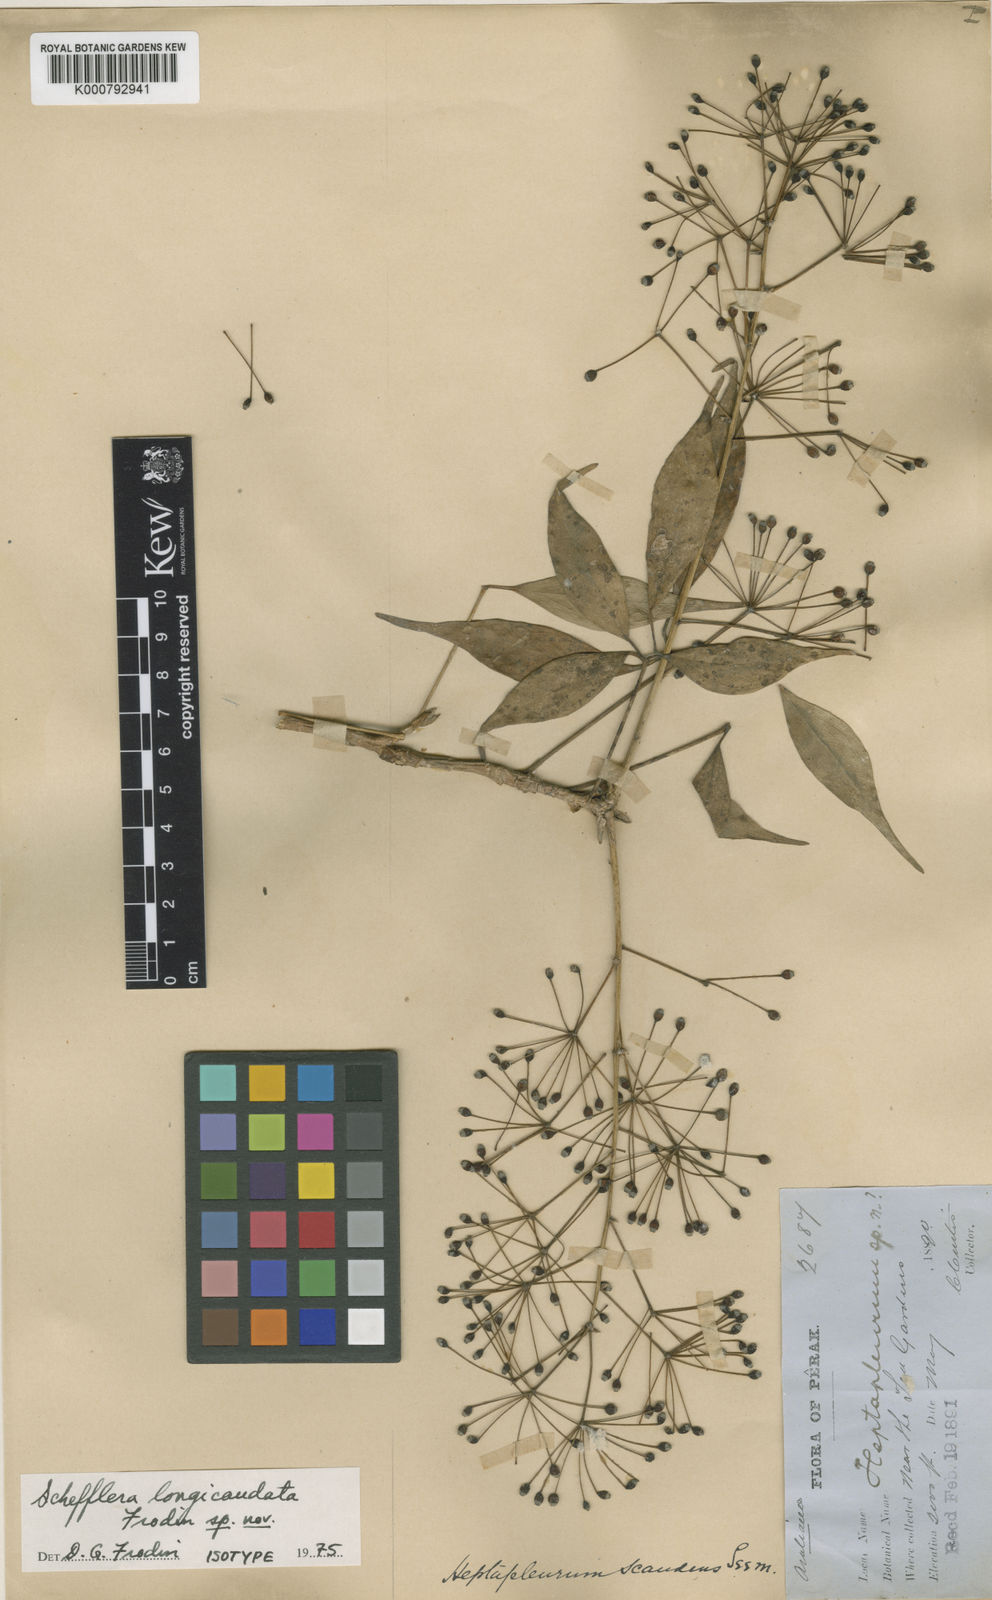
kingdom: Plantae
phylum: Tracheophyta
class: Magnoliopsida
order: Apiales
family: Araliaceae
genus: Schefflera
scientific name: Schefflera
